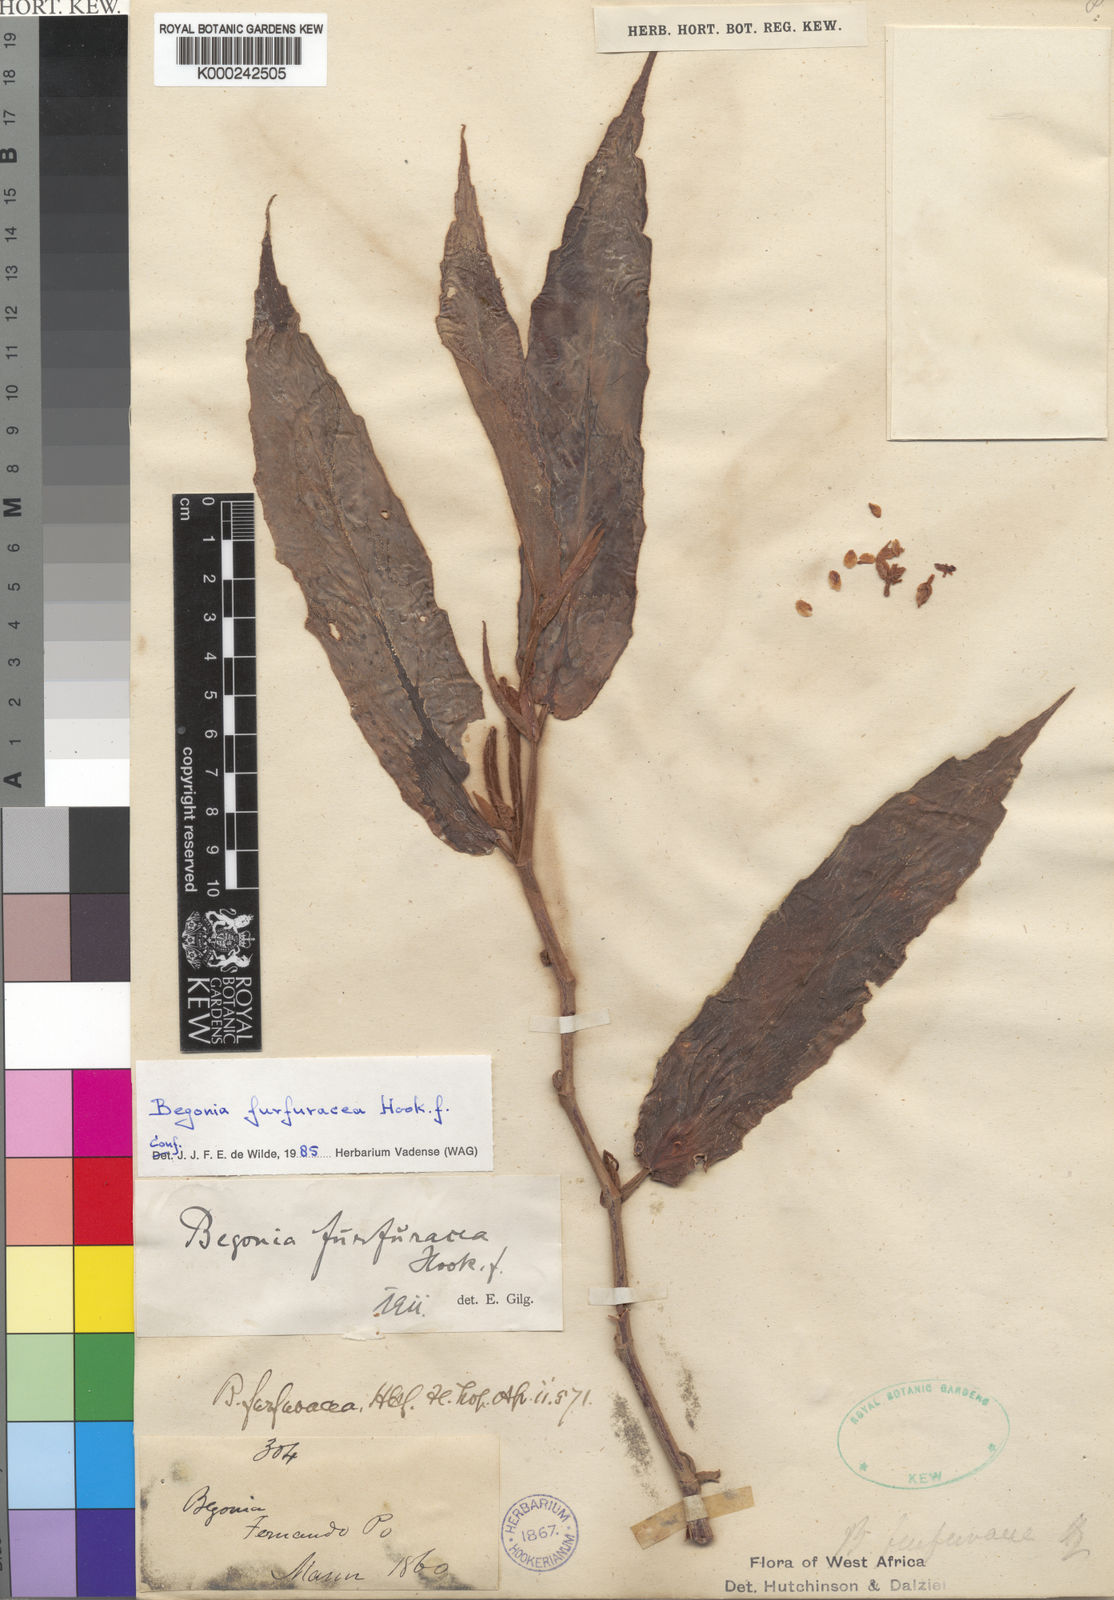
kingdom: Plantae
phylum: Tracheophyta
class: Magnoliopsida
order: Cucurbitales
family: Begoniaceae
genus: Begonia
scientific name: Begonia furfuracea
